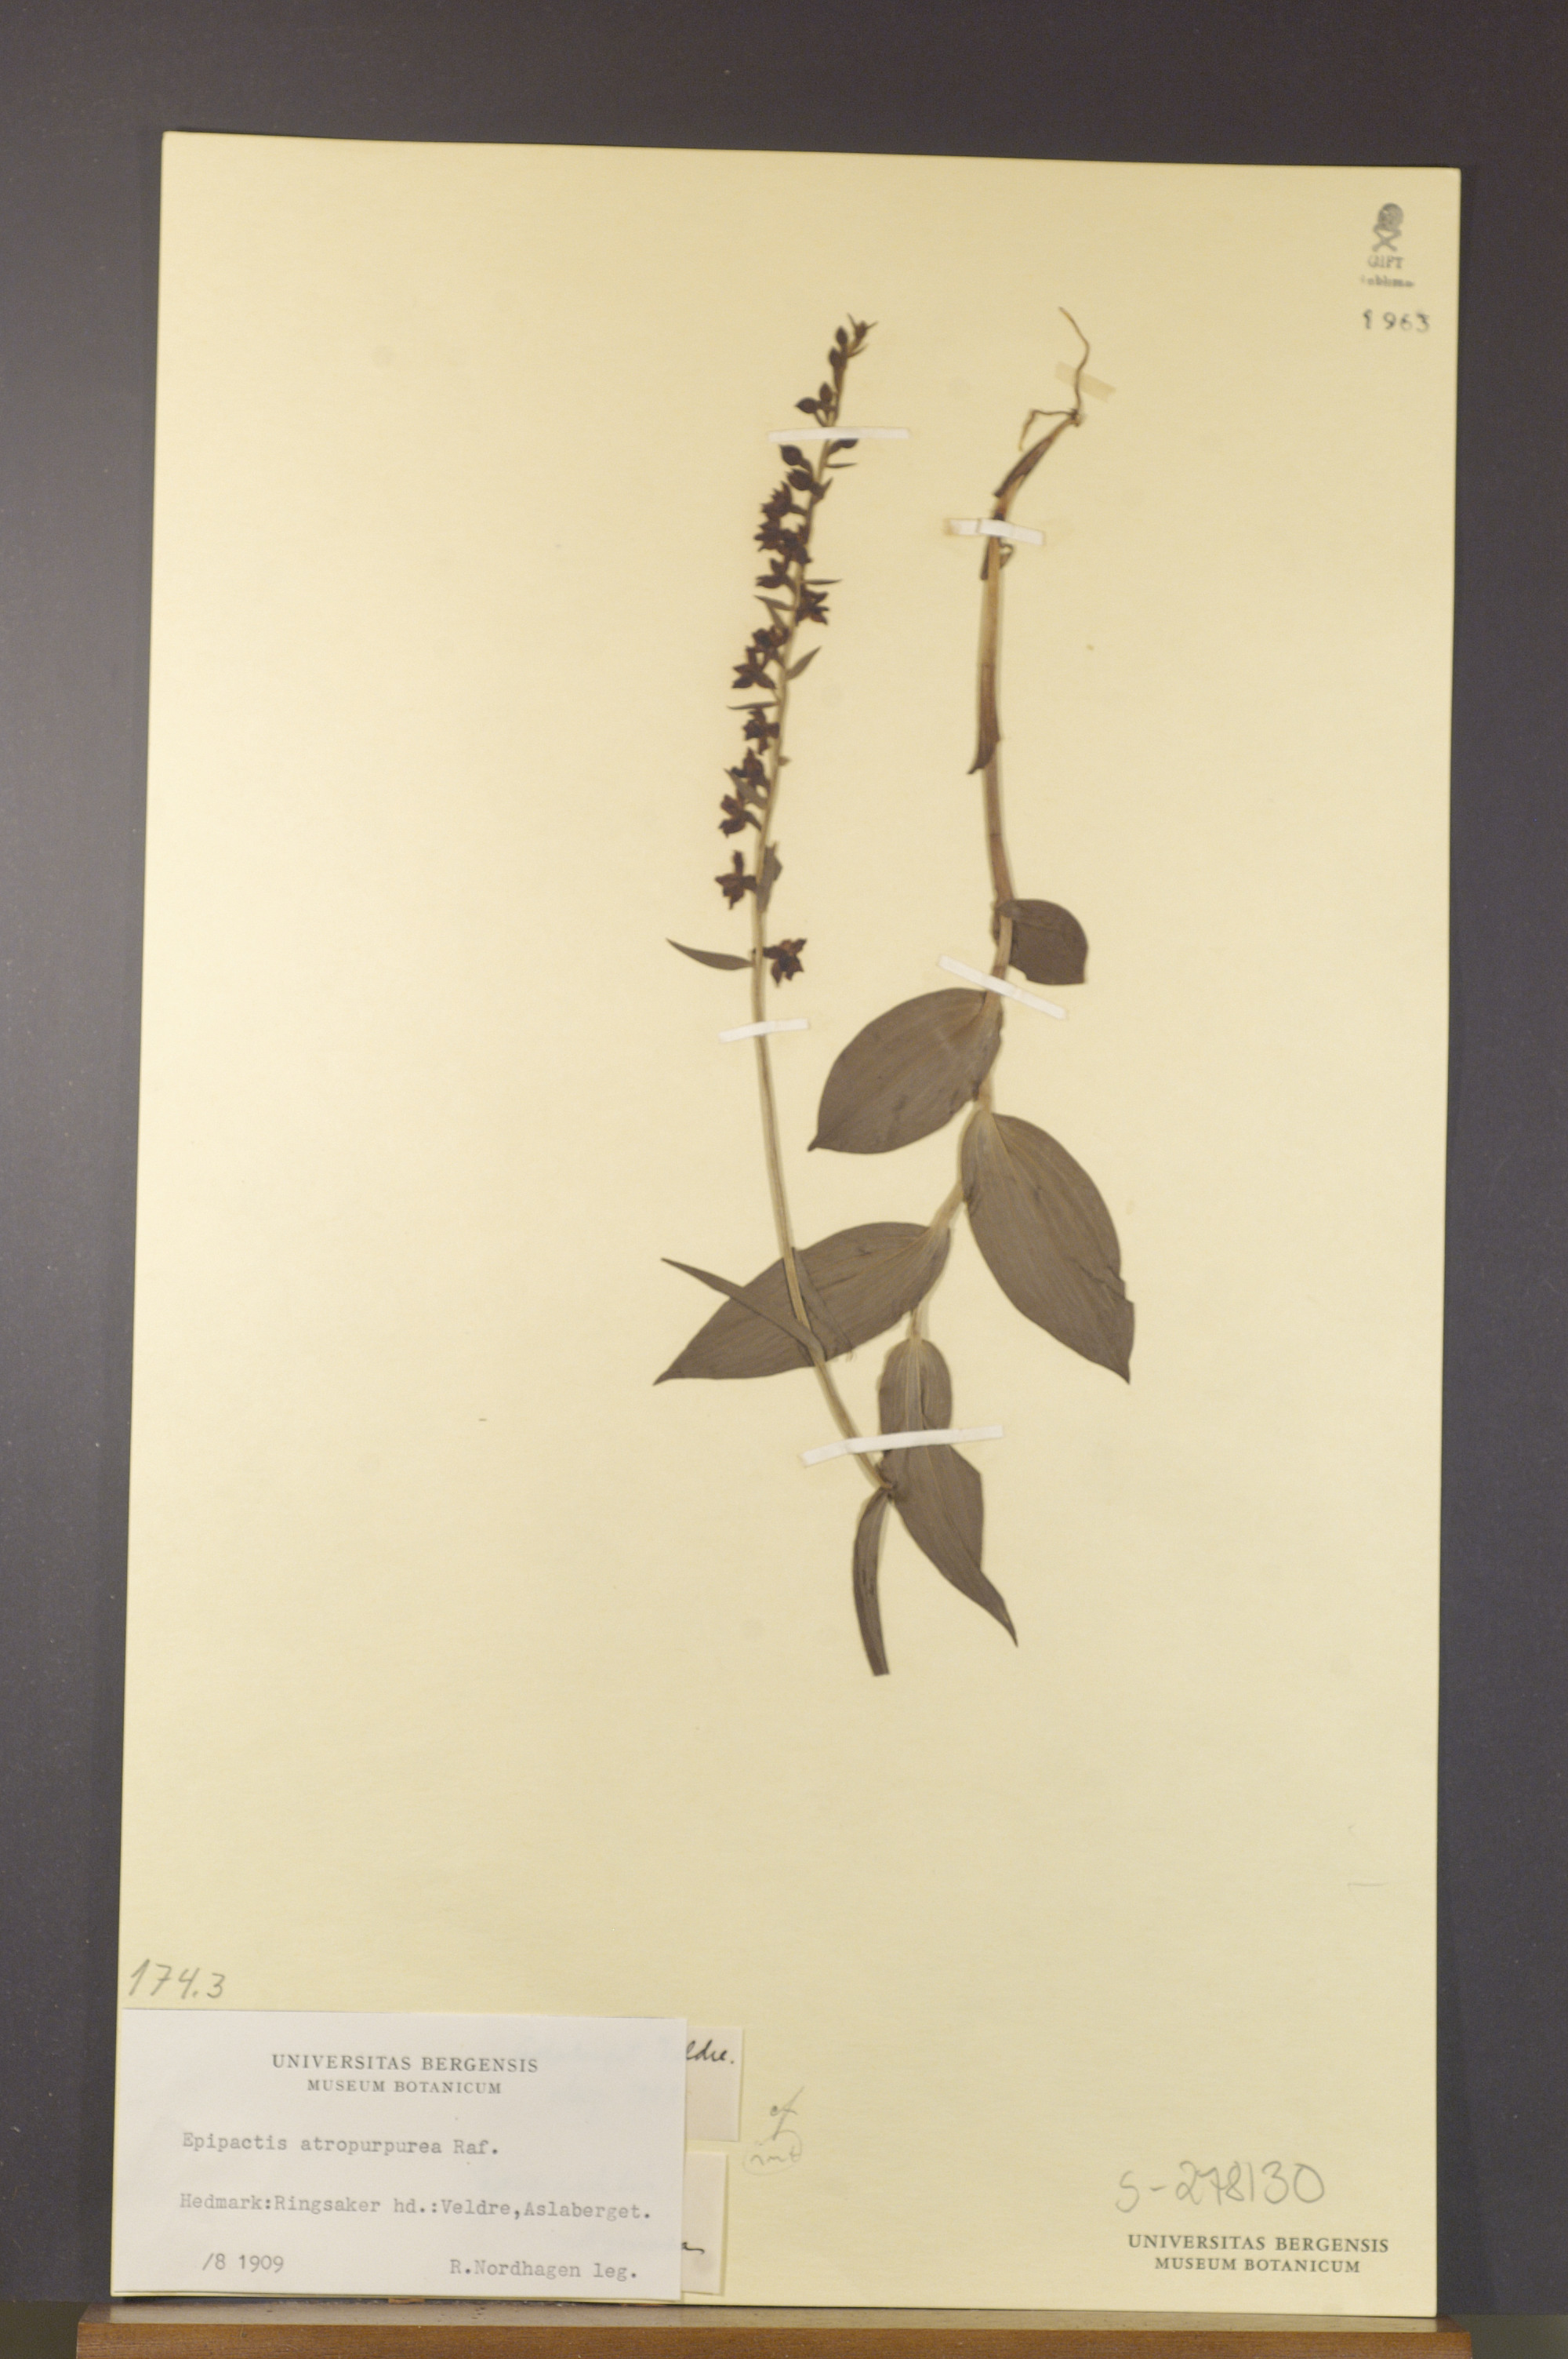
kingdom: Plantae
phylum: Tracheophyta
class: Liliopsida
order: Asparagales
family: Orchidaceae
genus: Epipactis
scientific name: Epipactis atrorubens
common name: Dark-red helleborine
